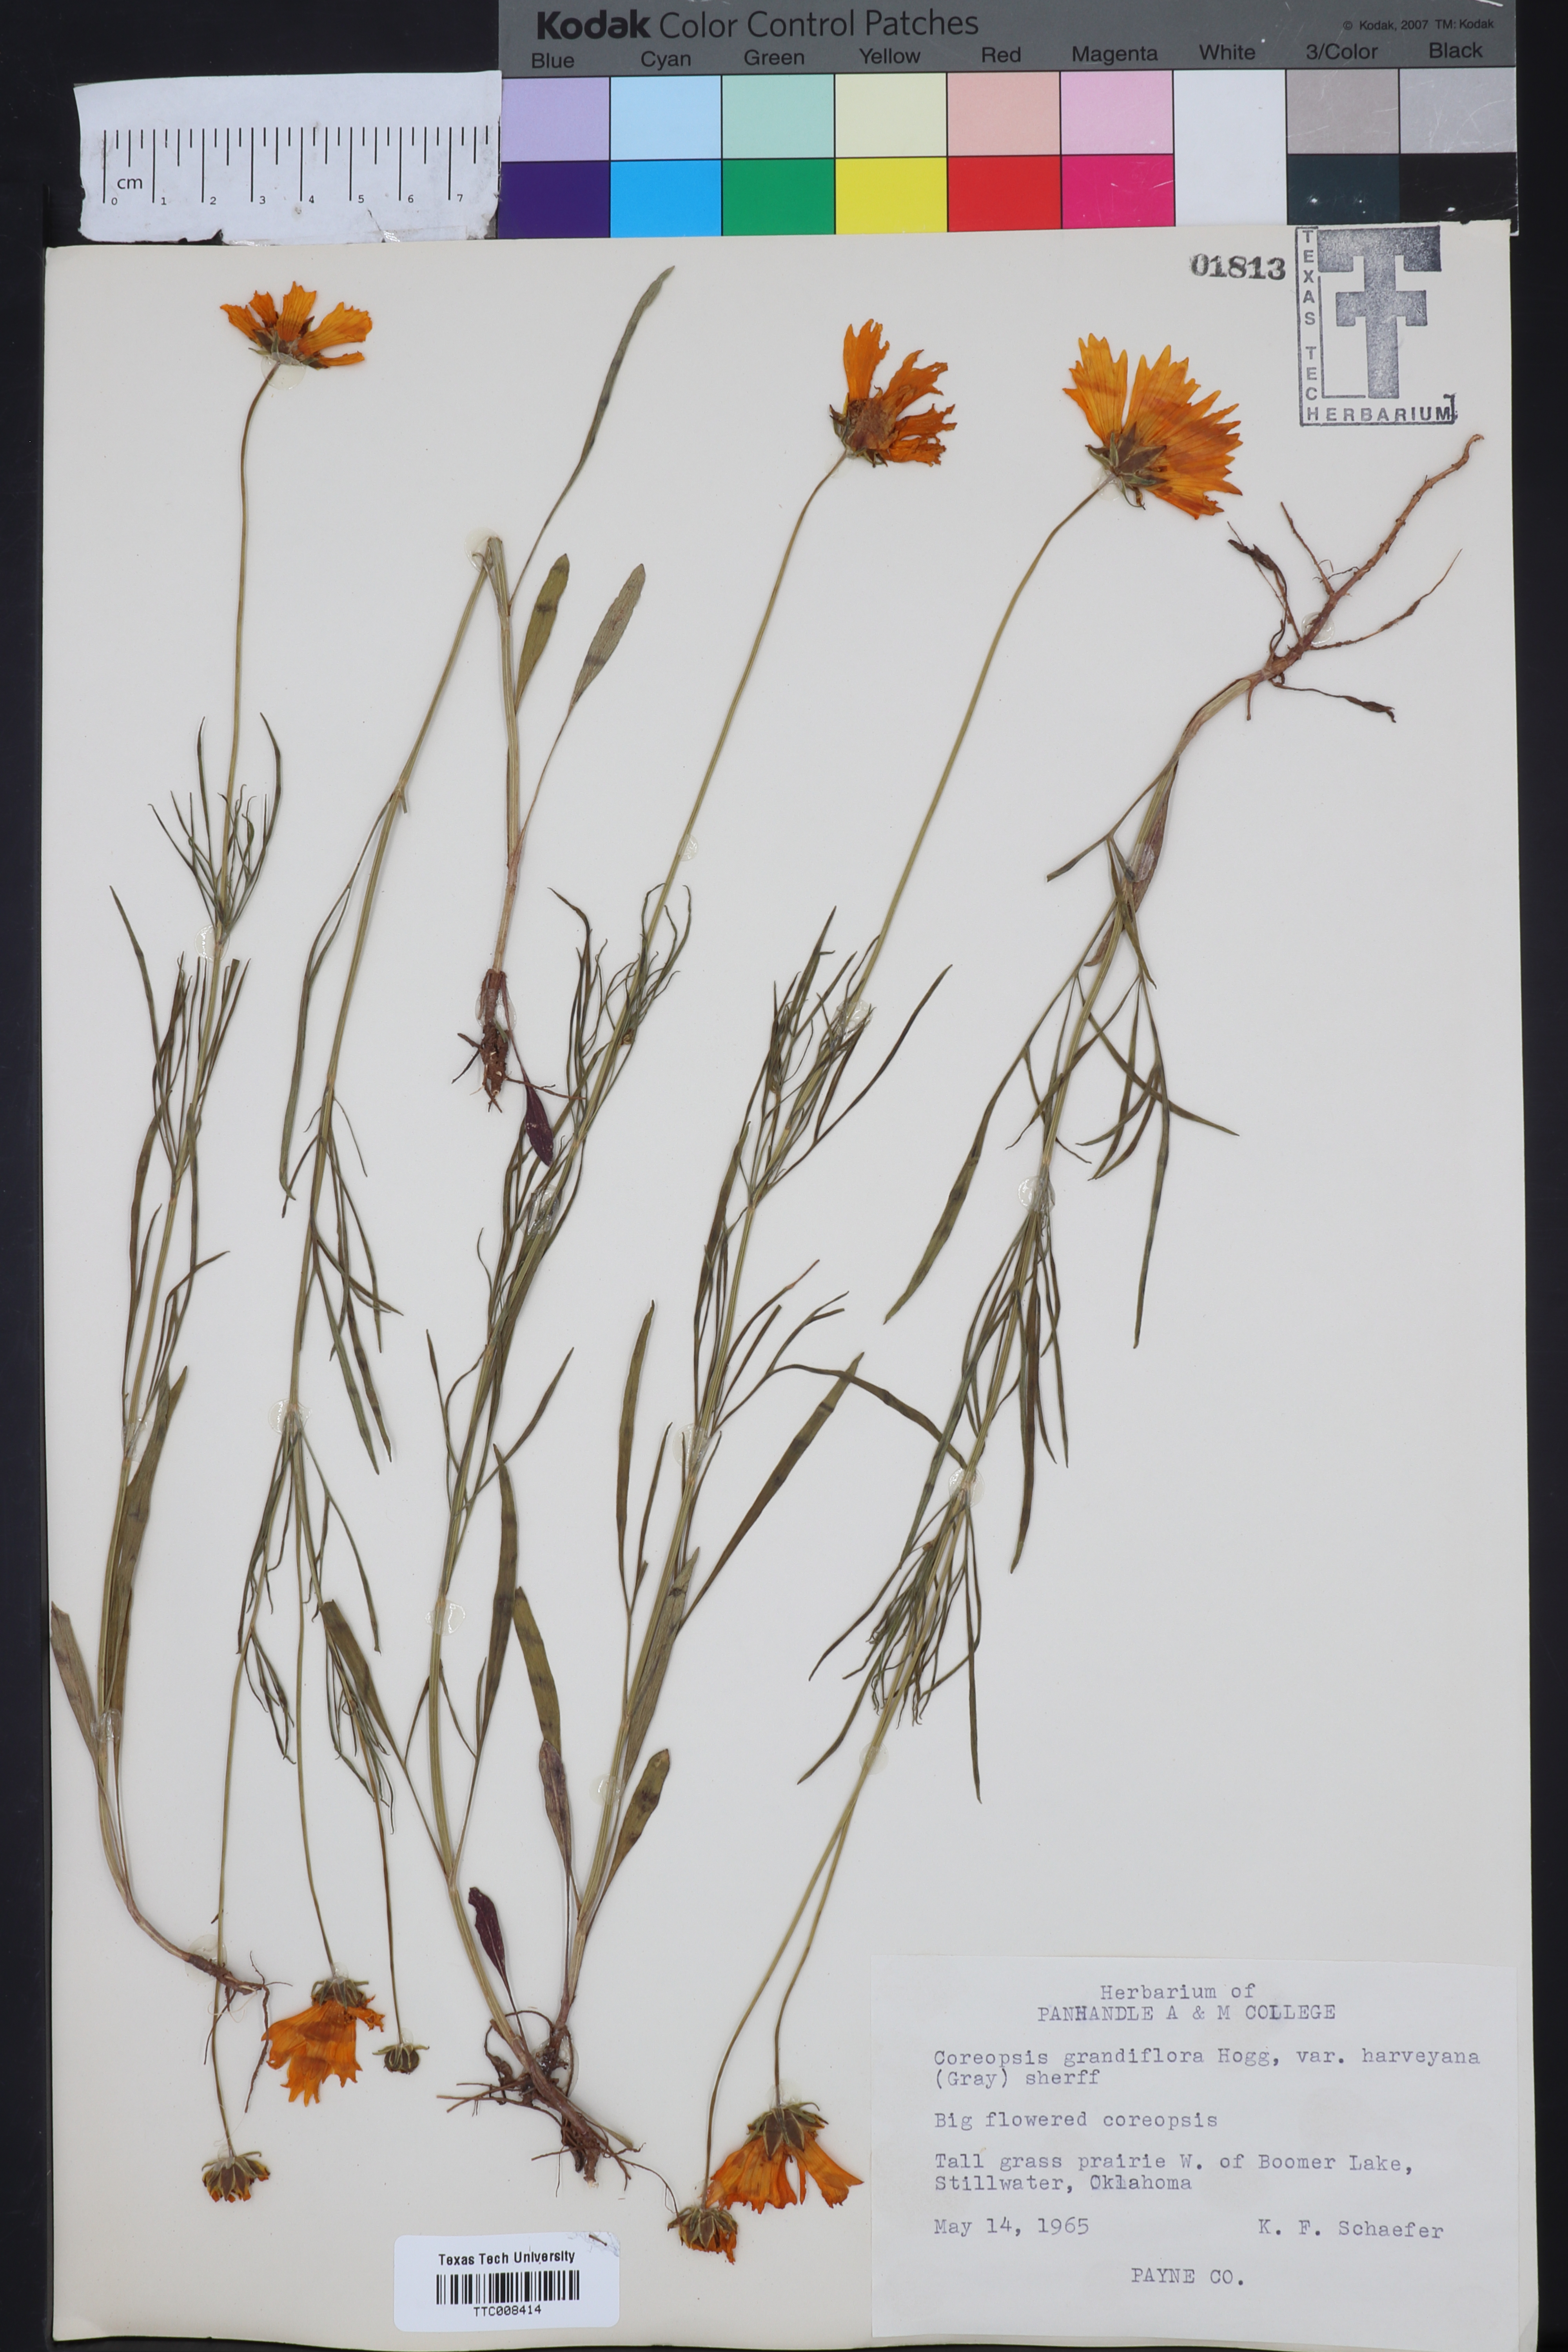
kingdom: Plantae
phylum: Tracheophyta
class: Magnoliopsida
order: Asterales
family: Asteraceae
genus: Coreopsis
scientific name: Coreopsis grandiflora
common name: Large-flowered tickseed
